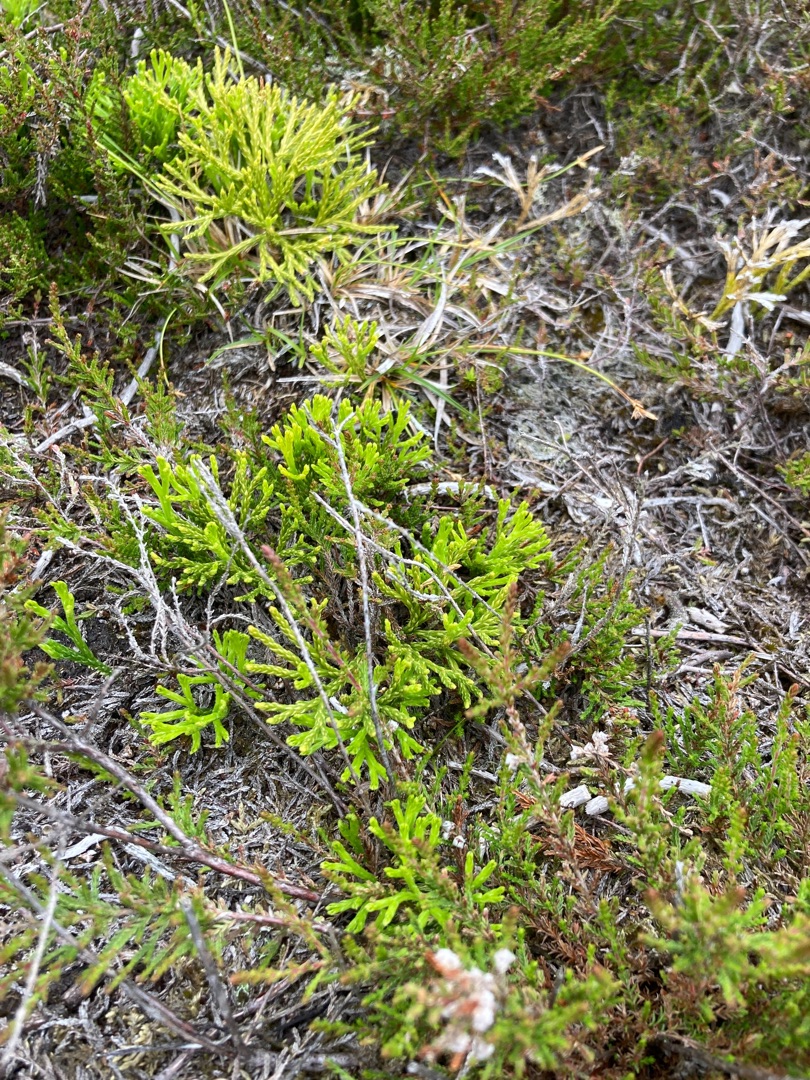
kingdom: Plantae
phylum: Tracheophyta
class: Lycopodiopsida
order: Lycopodiales
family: Lycopodiaceae
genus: Diphasiastrum
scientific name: Diphasiastrum tristachyum
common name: Cypres-ulvefod
